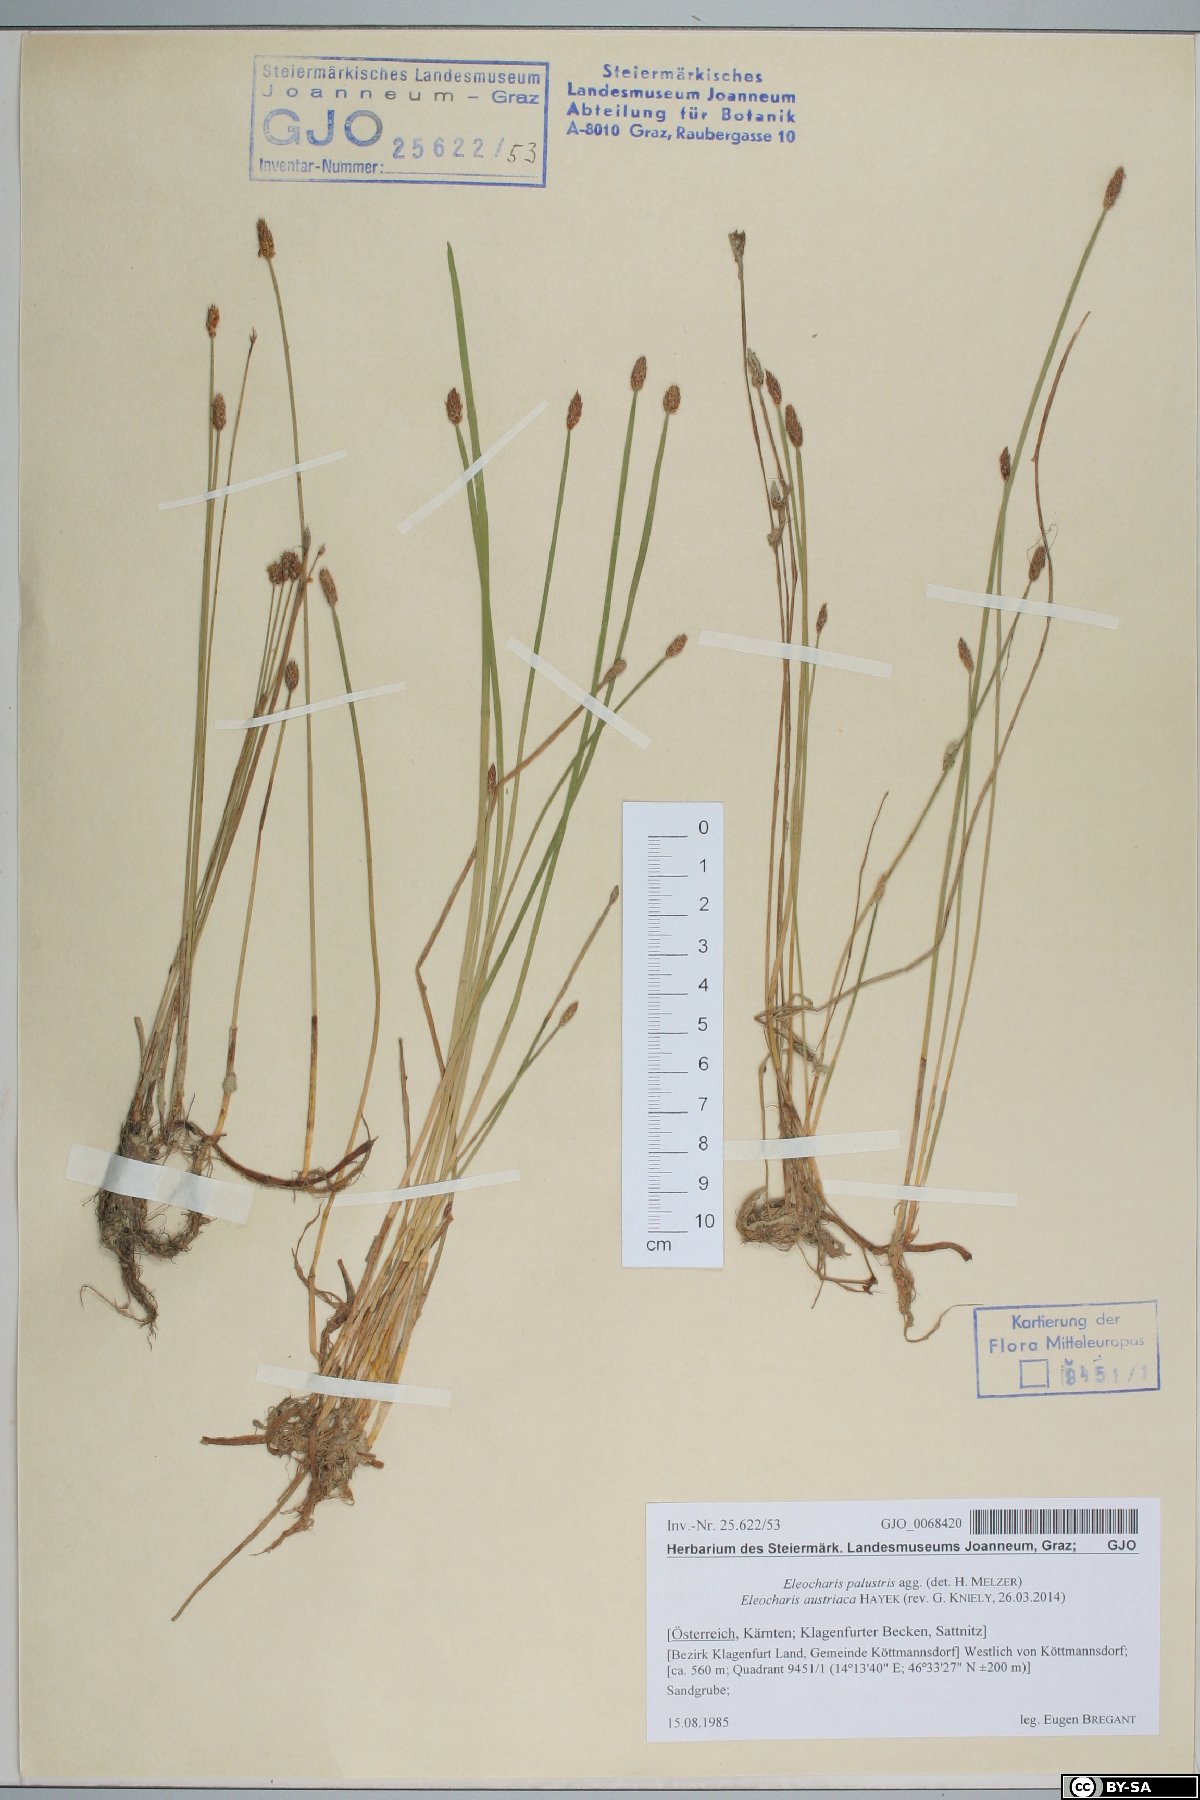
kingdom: Plantae
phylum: Tracheophyta
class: Liliopsida
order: Poales
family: Cyperaceae
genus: Eleocharis
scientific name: Eleocharis mamillata
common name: Northern spike-rush
